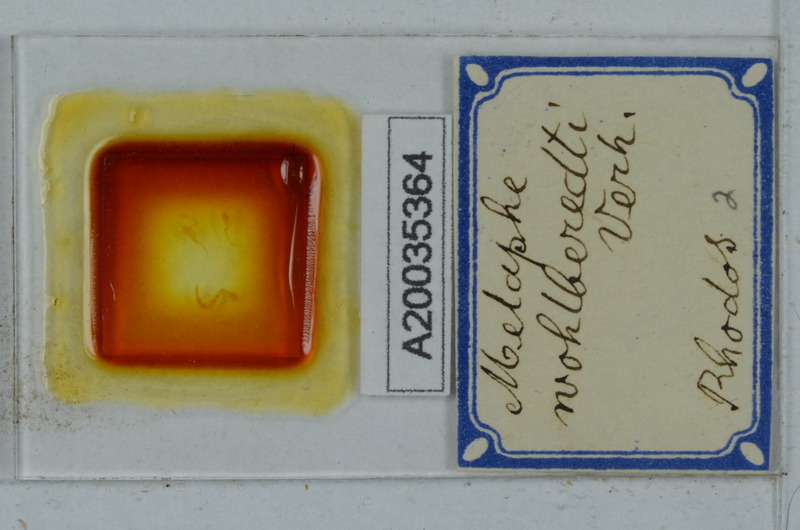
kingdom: Animalia
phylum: Arthropoda
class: Diplopoda
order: Polydesmida
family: Xystodesmidae
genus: Melaphe
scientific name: Melaphe vestita
